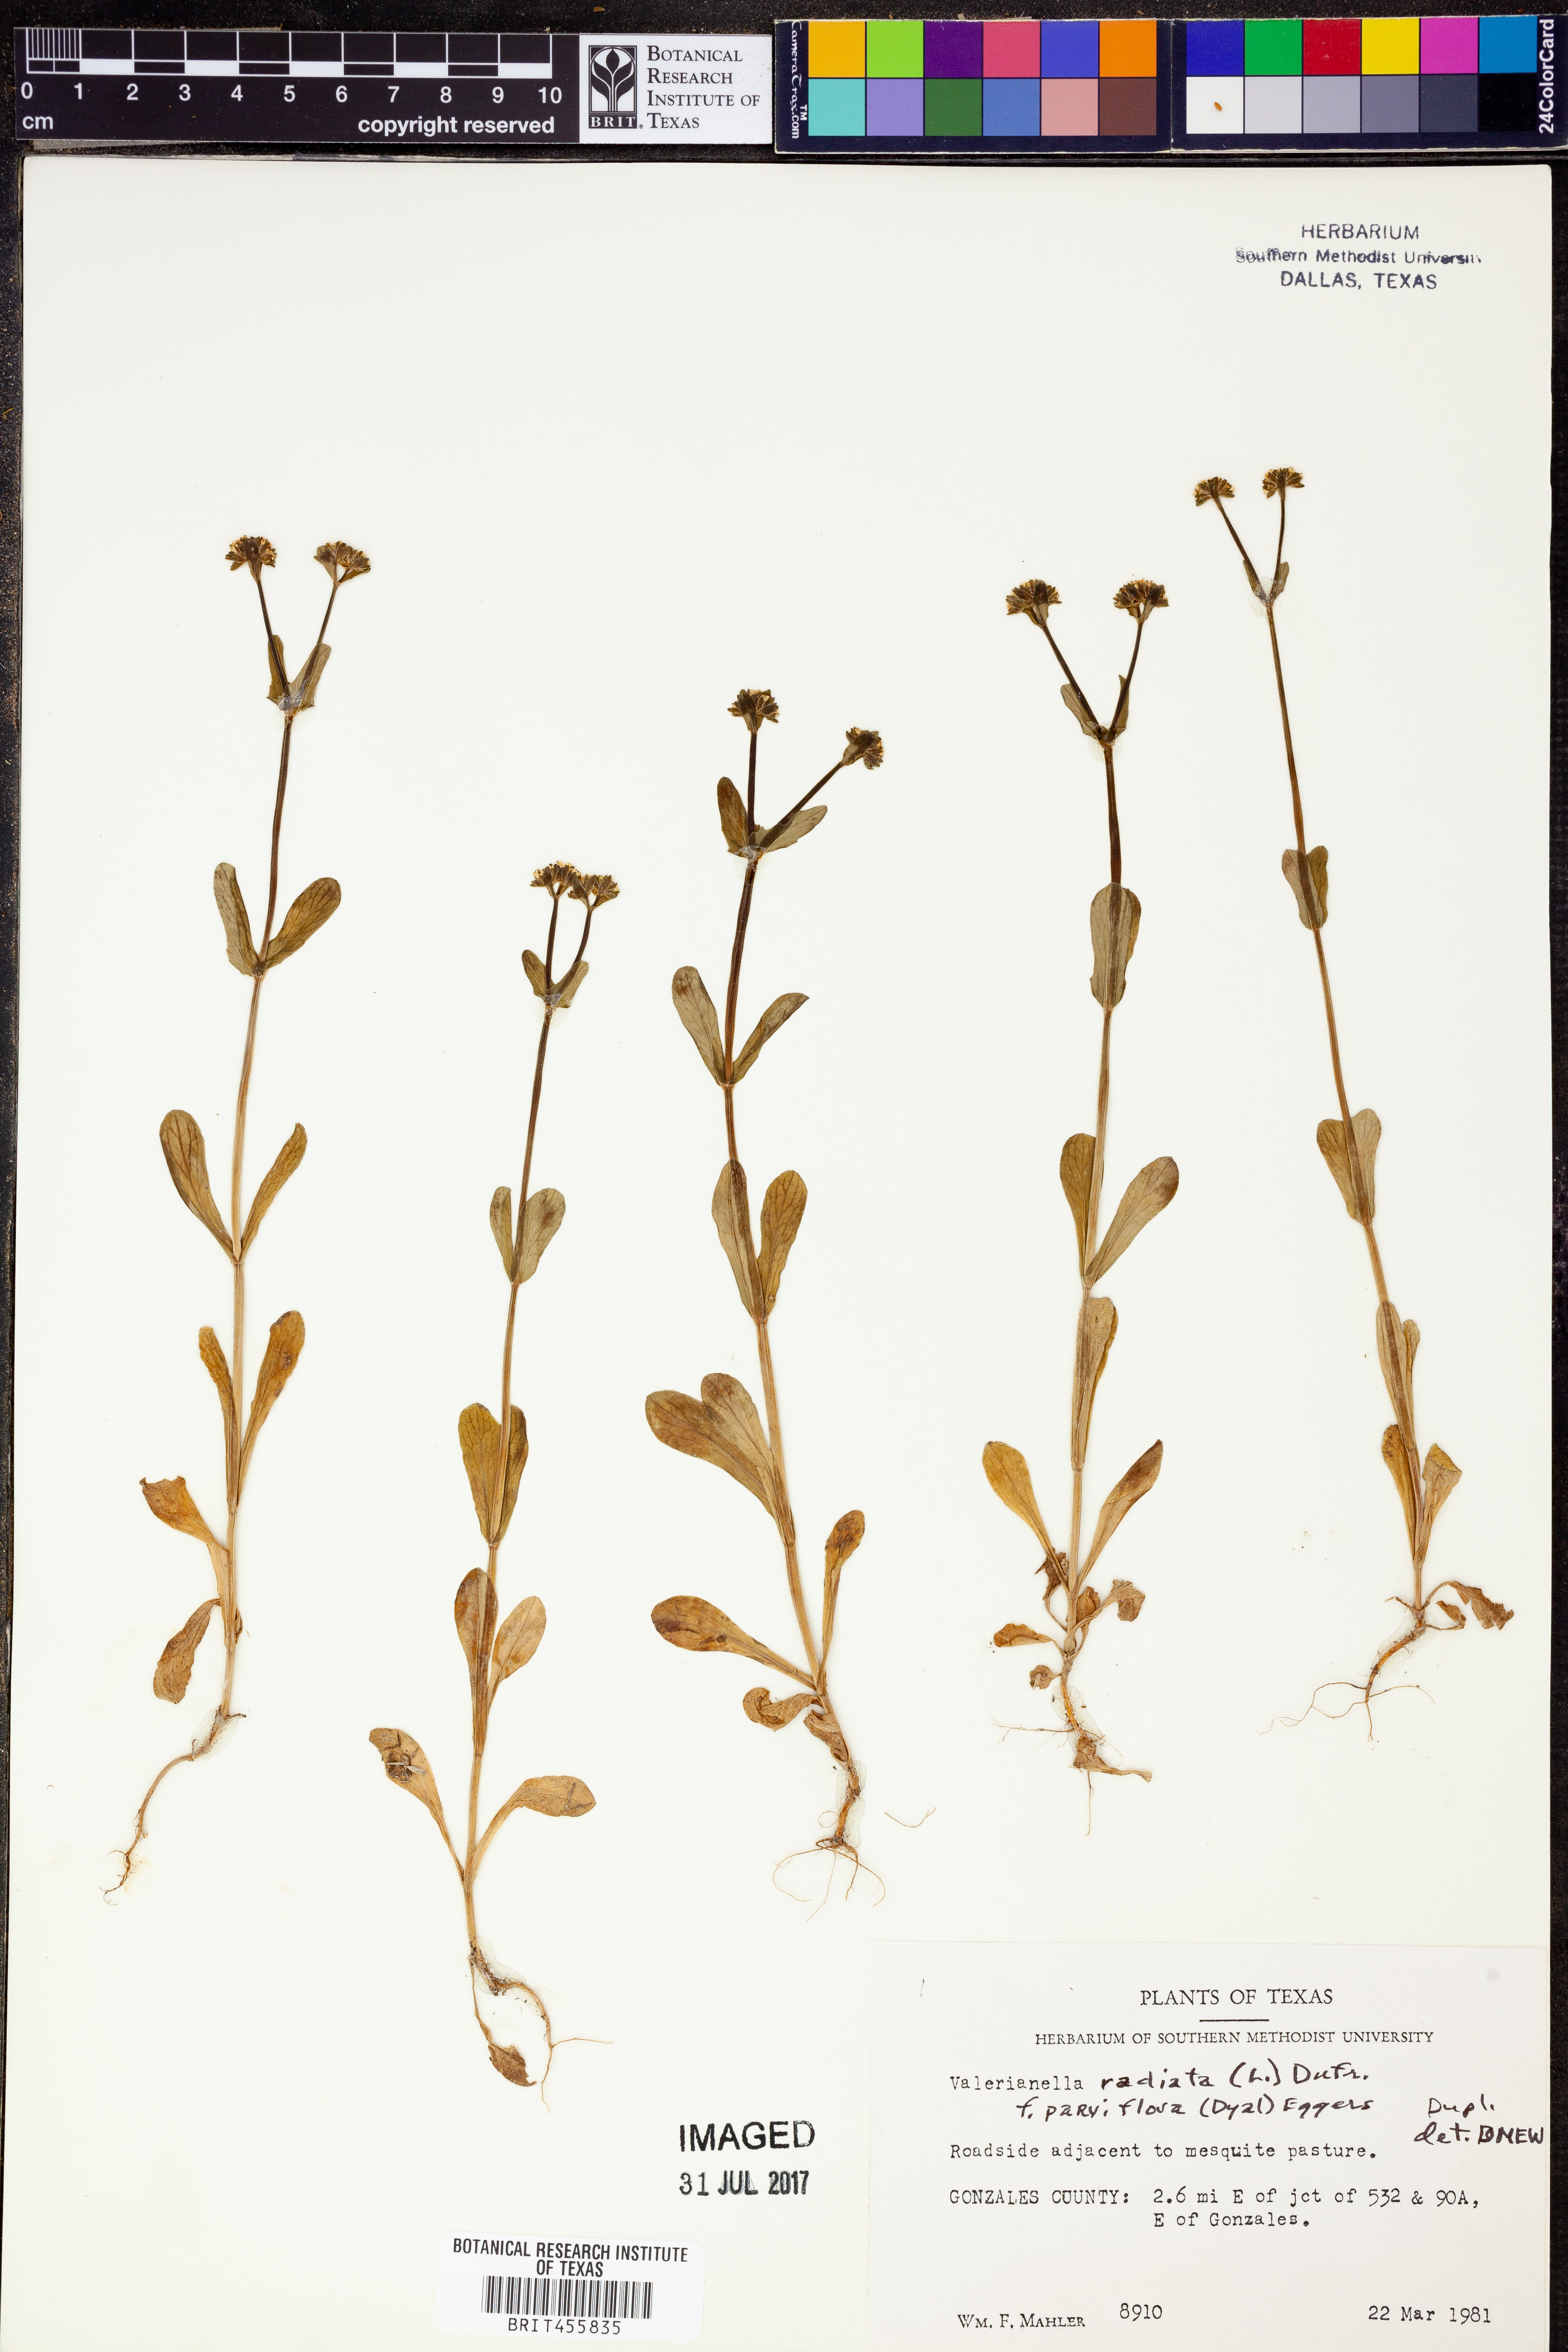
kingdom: Plantae
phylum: Tracheophyta
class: Magnoliopsida
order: Dipsacales
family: Caprifoliaceae
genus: Valerianella
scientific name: Valerianella radiata
